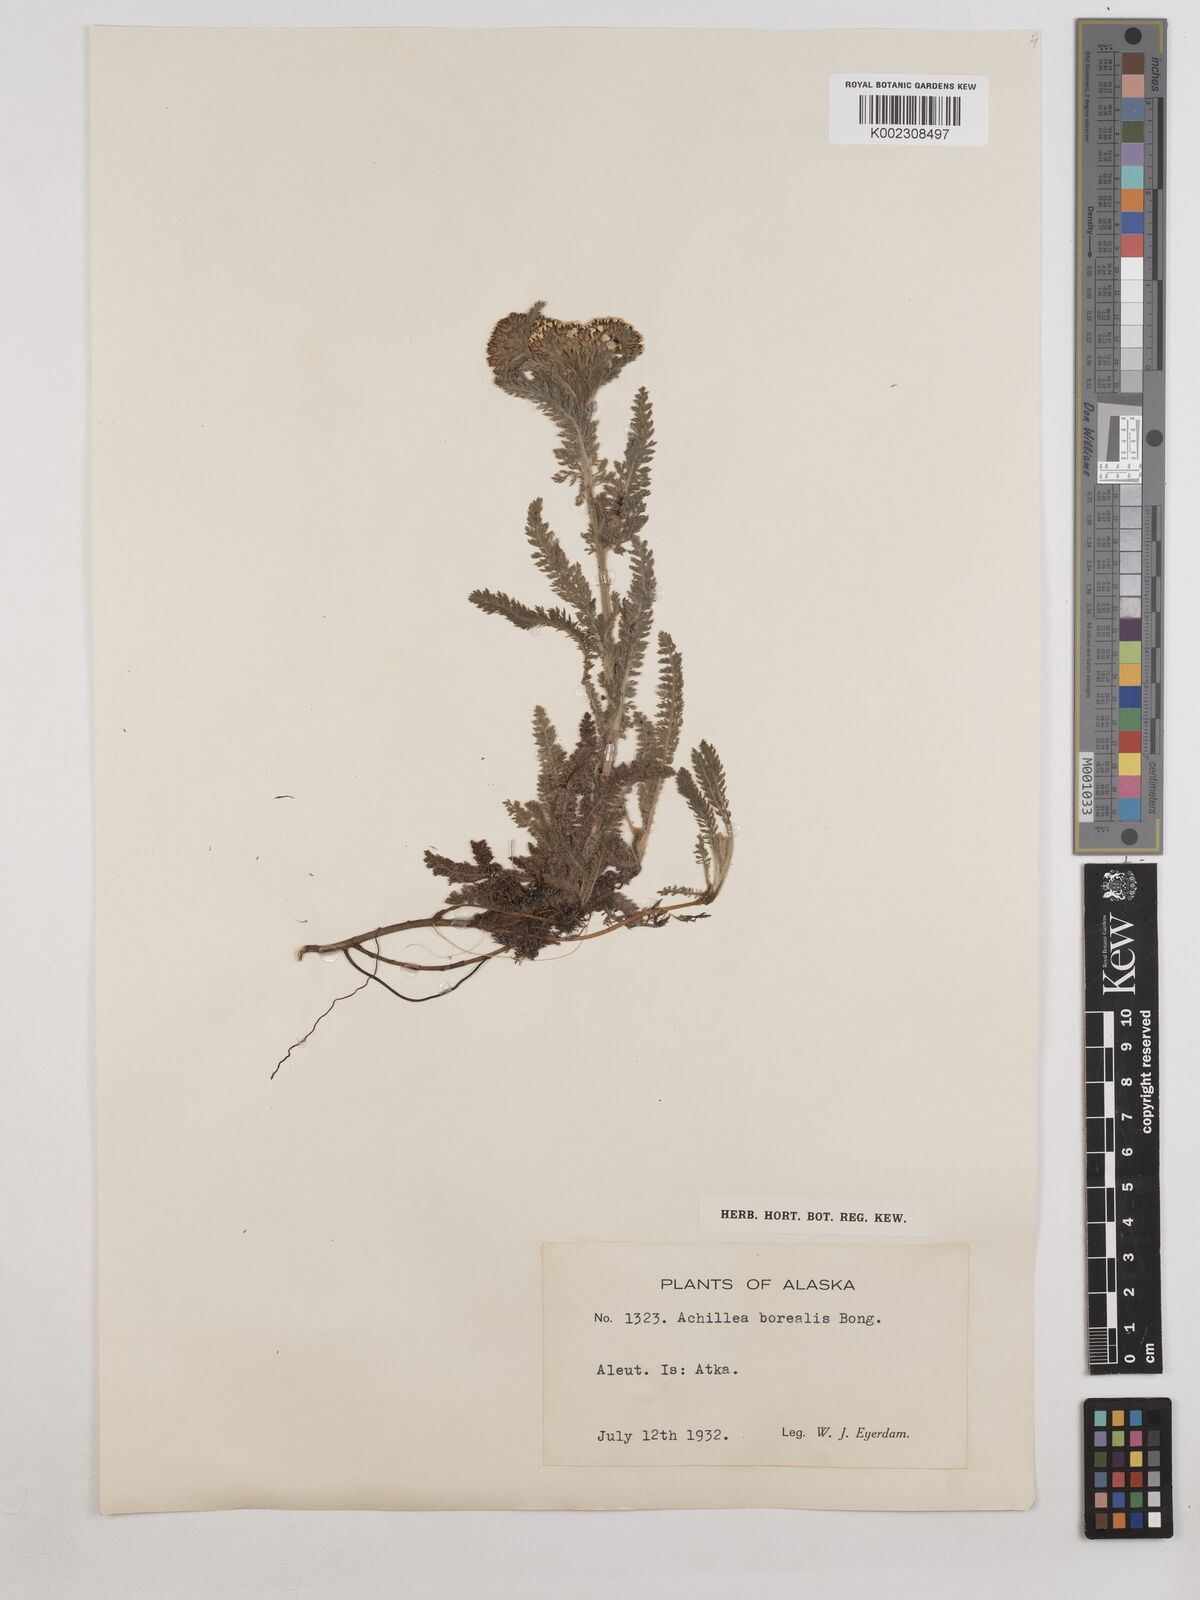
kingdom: Plantae
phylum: Tracheophyta
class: Magnoliopsida
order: Asterales
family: Asteraceae
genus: Achillea
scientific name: Achillea millefolium
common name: Yarrow
